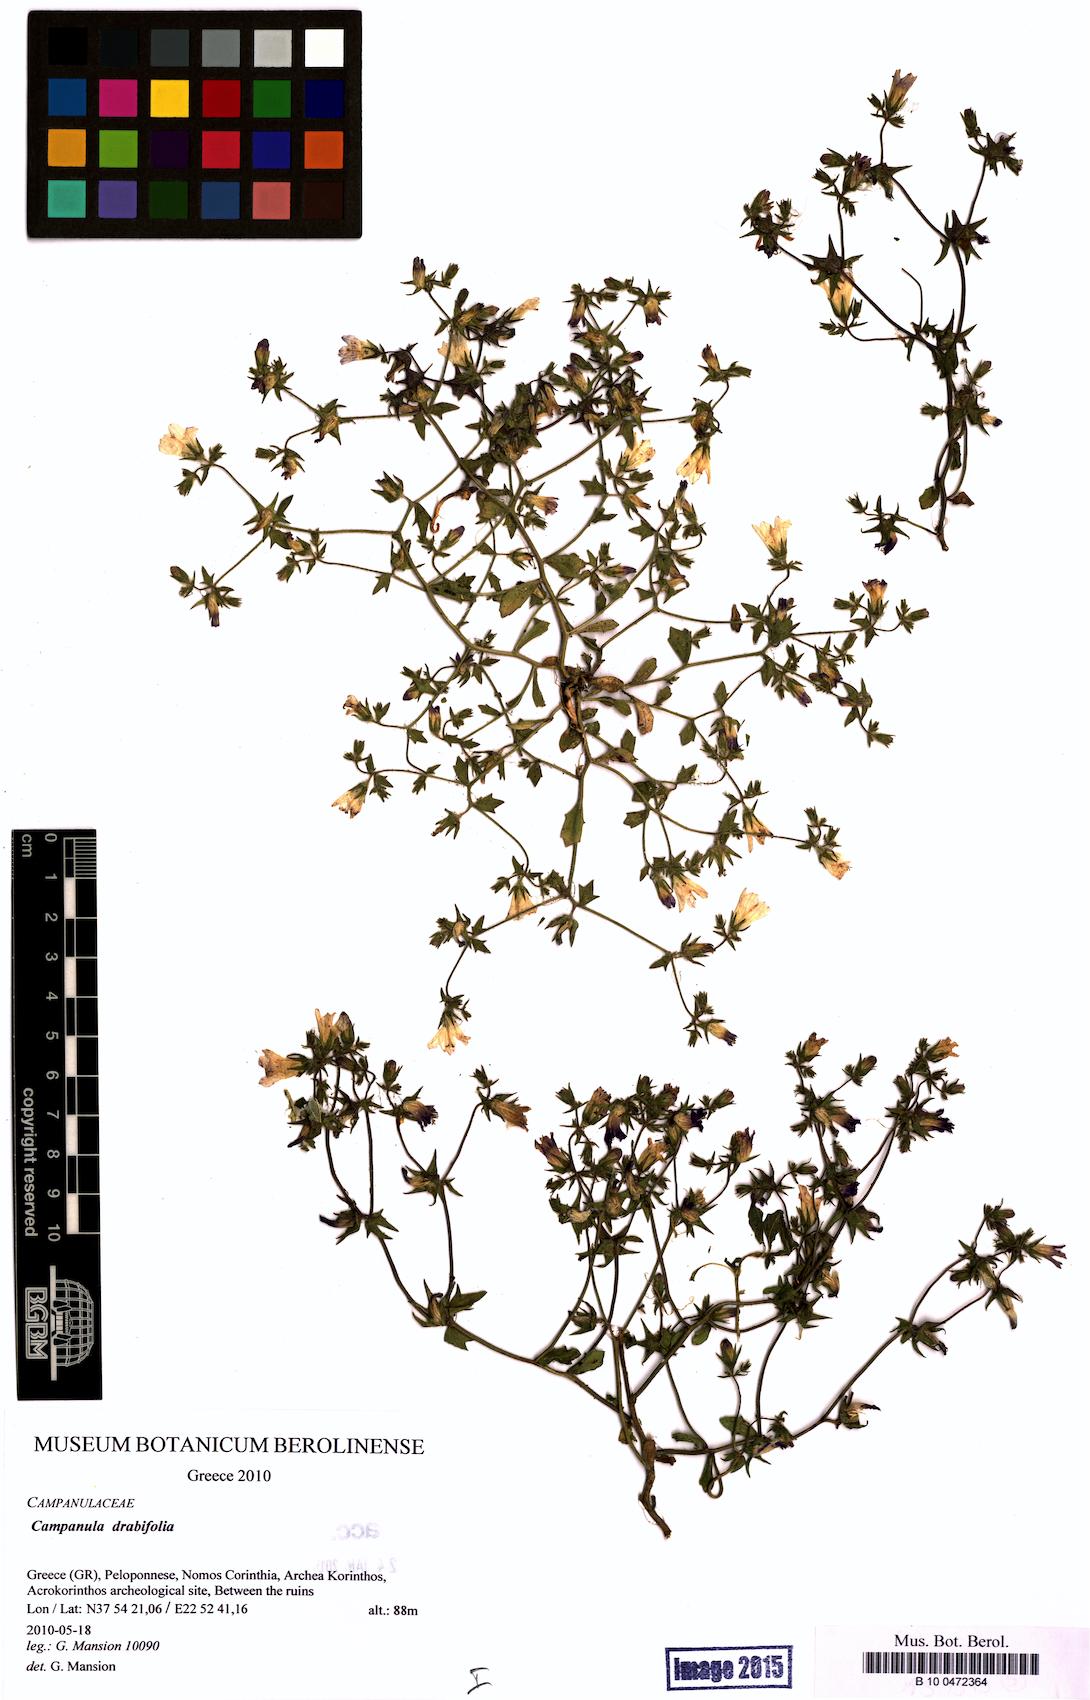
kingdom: Plantae
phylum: Tracheophyta
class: Magnoliopsida
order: Asterales
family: Campanulaceae
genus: Campanula
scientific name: Campanula drabifolia
